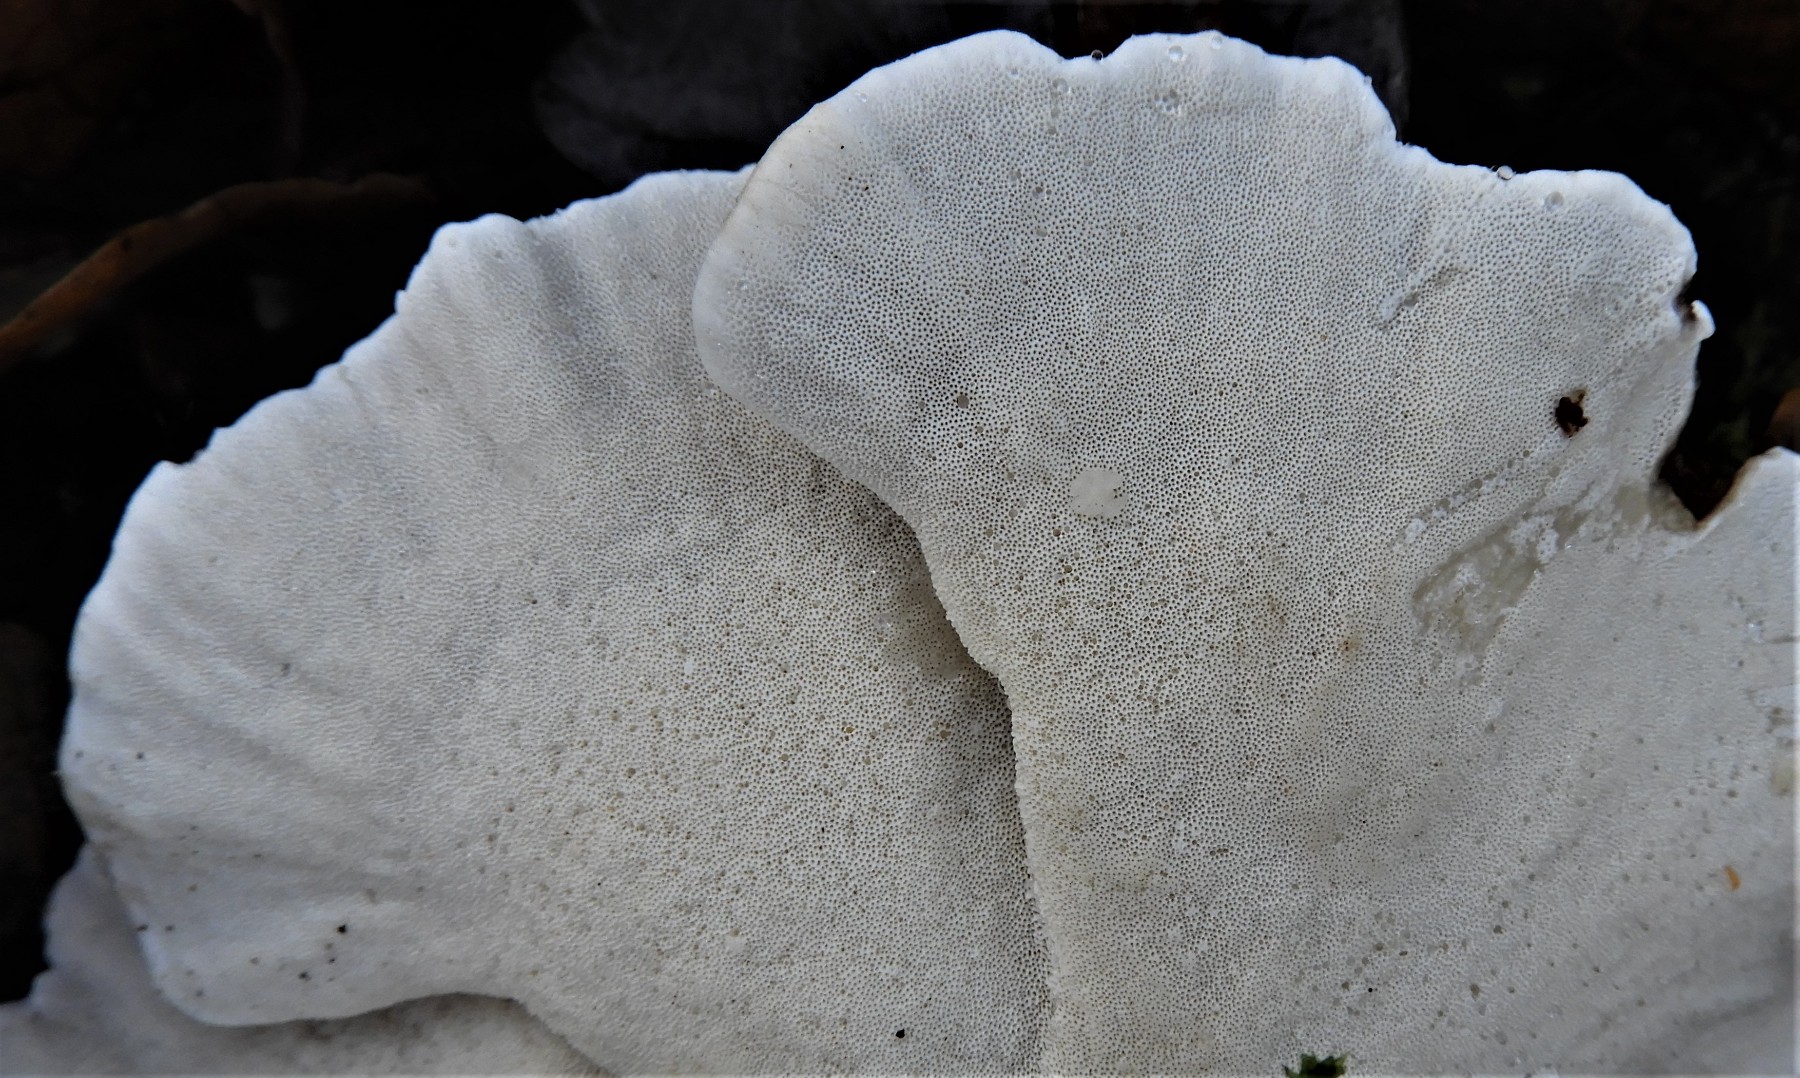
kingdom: Fungi
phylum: Basidiomycota
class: Agaricomycetes
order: Polyporales
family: Polyporaceae
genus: Trametes
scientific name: Trametes versicolor
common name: broget læderporesvamp
